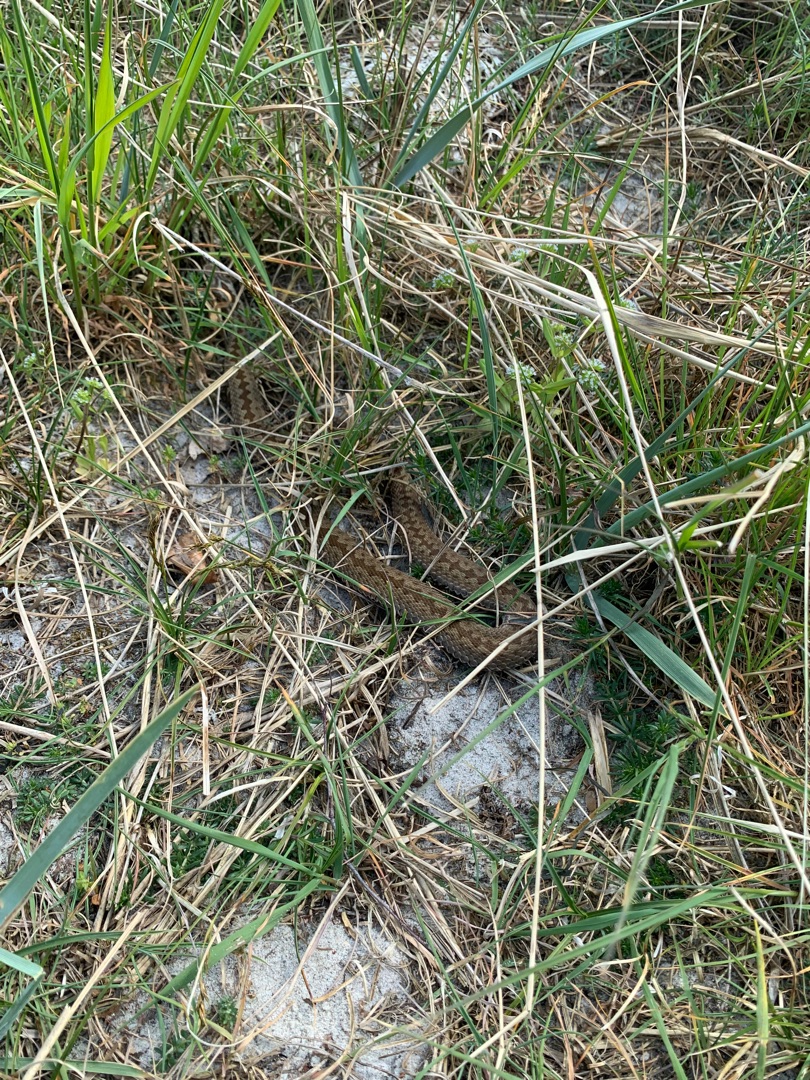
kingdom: Animalia
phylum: Chordata
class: Squamata
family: Viperidae
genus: Vipera
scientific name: Vipera berus
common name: Hugorm
